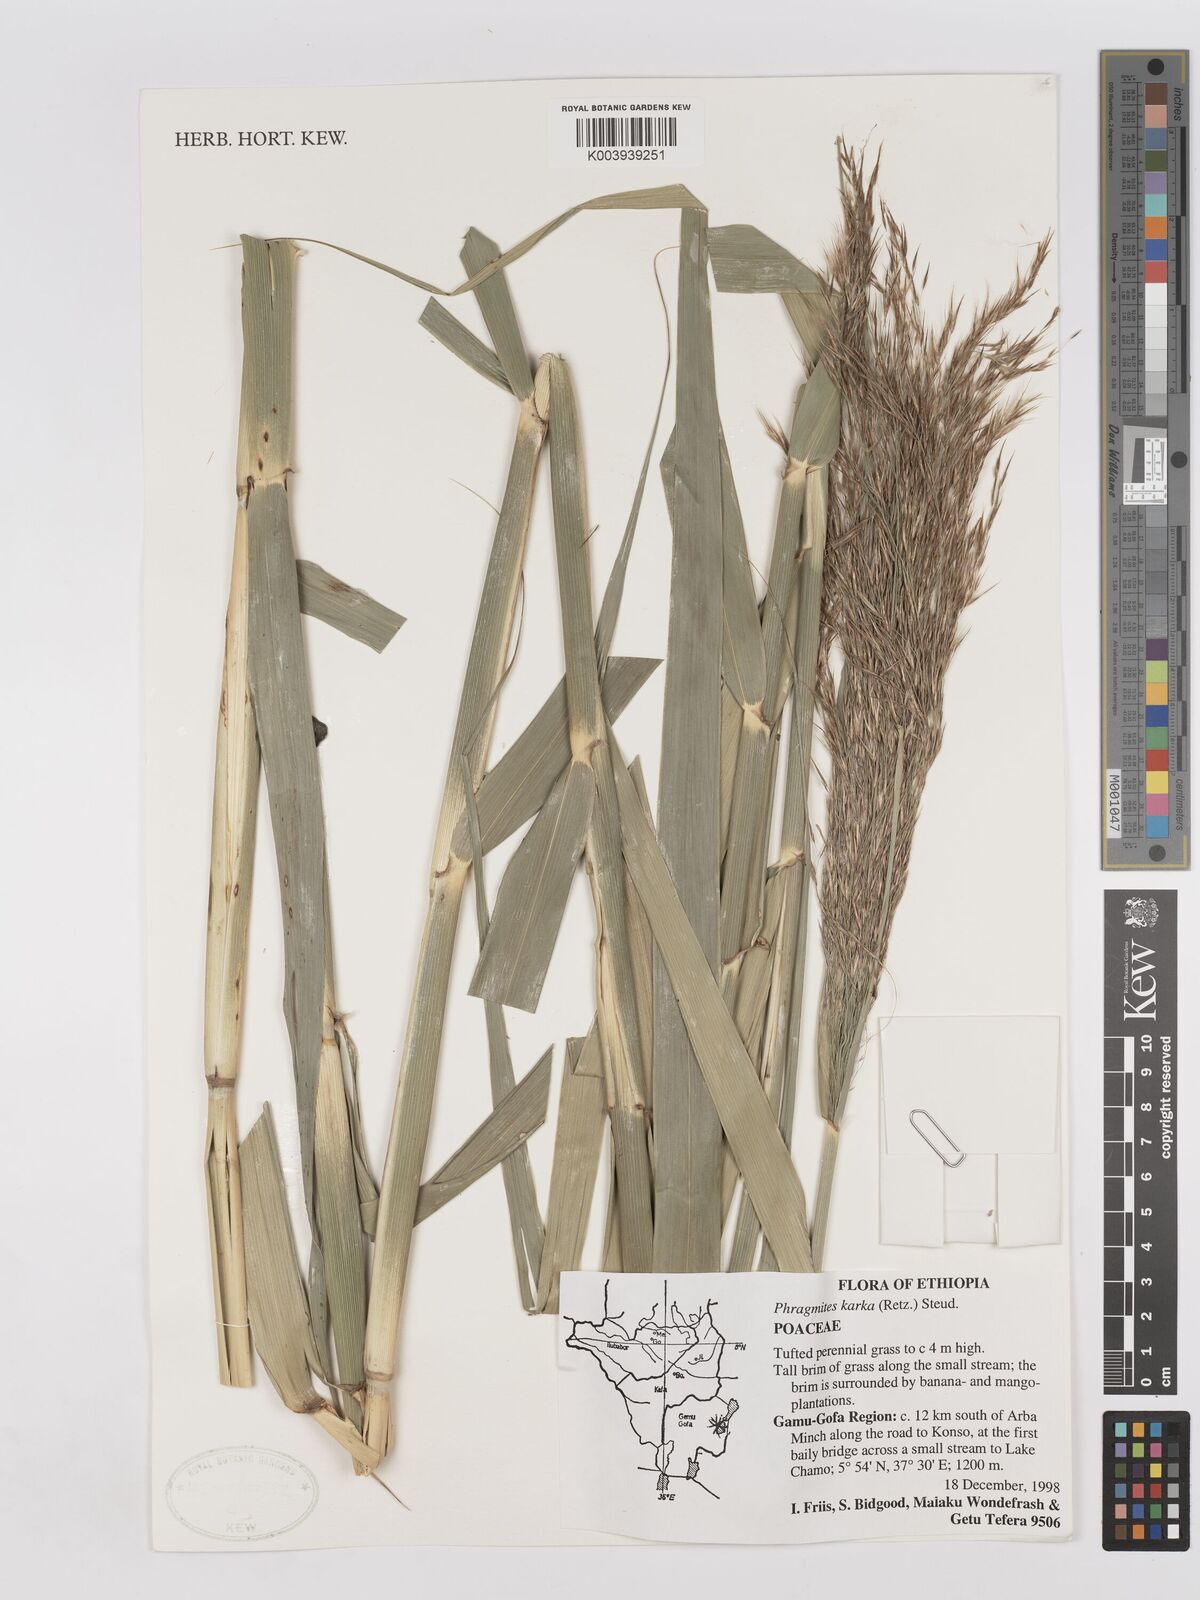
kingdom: Plantae
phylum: Tracheophyta
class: Liliopsida
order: Poales
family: Poaceae
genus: Phragmites
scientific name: Phragmites karka
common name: Tropical reed
